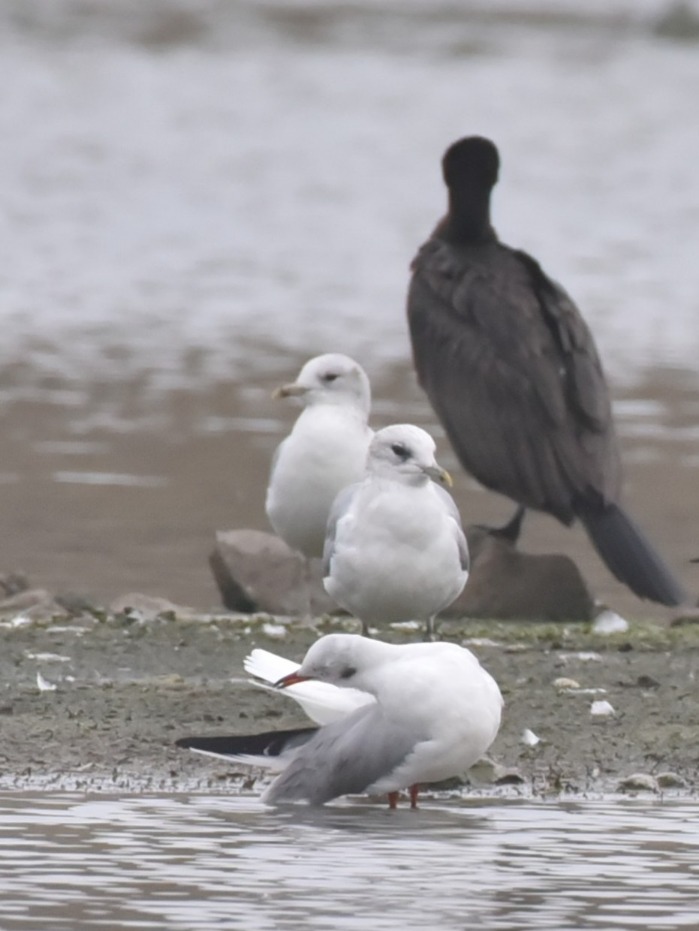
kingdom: Animalia
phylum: Chordata
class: Aves
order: Charadriiformes
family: Laridae
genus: Larus
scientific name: Larus canus
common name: Stormmåge
